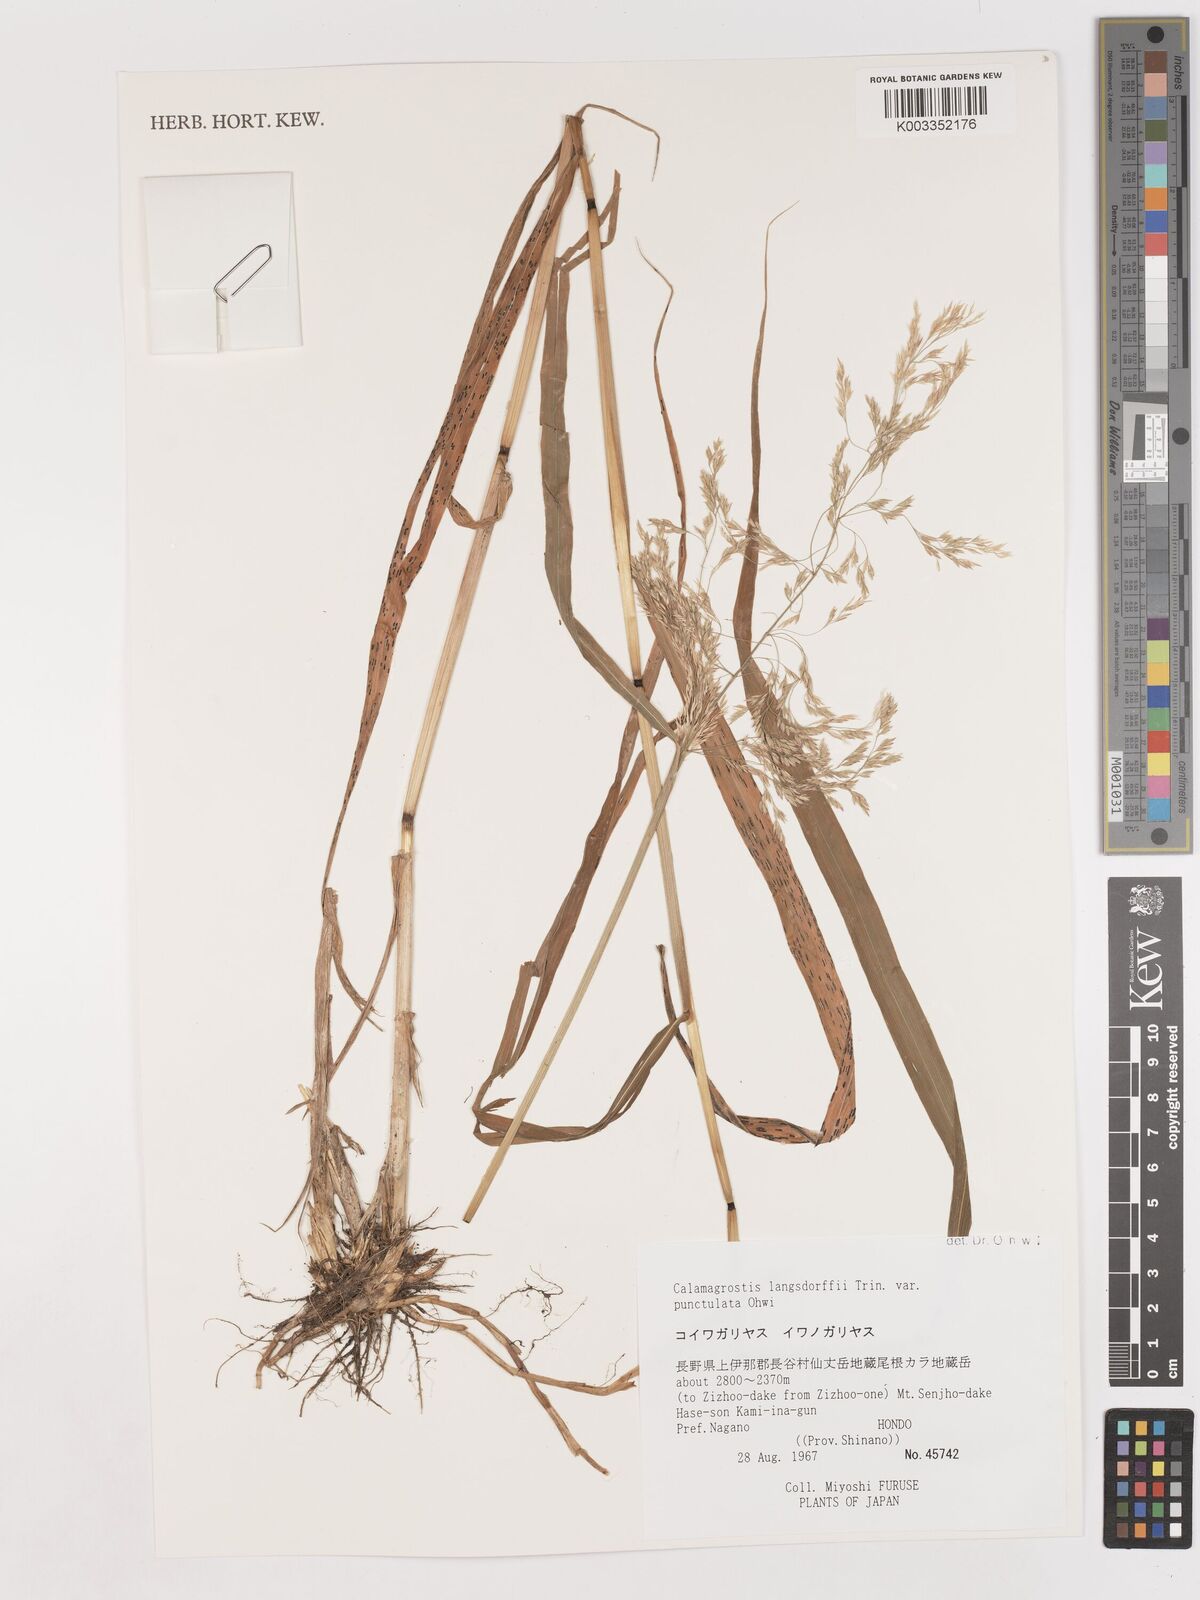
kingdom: Plantae
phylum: Tracheophyta
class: Liliopsida
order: Poales
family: Poaceae
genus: Calamagrostis
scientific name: Calamagrostis purpurea
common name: Scandinavian small-reed
